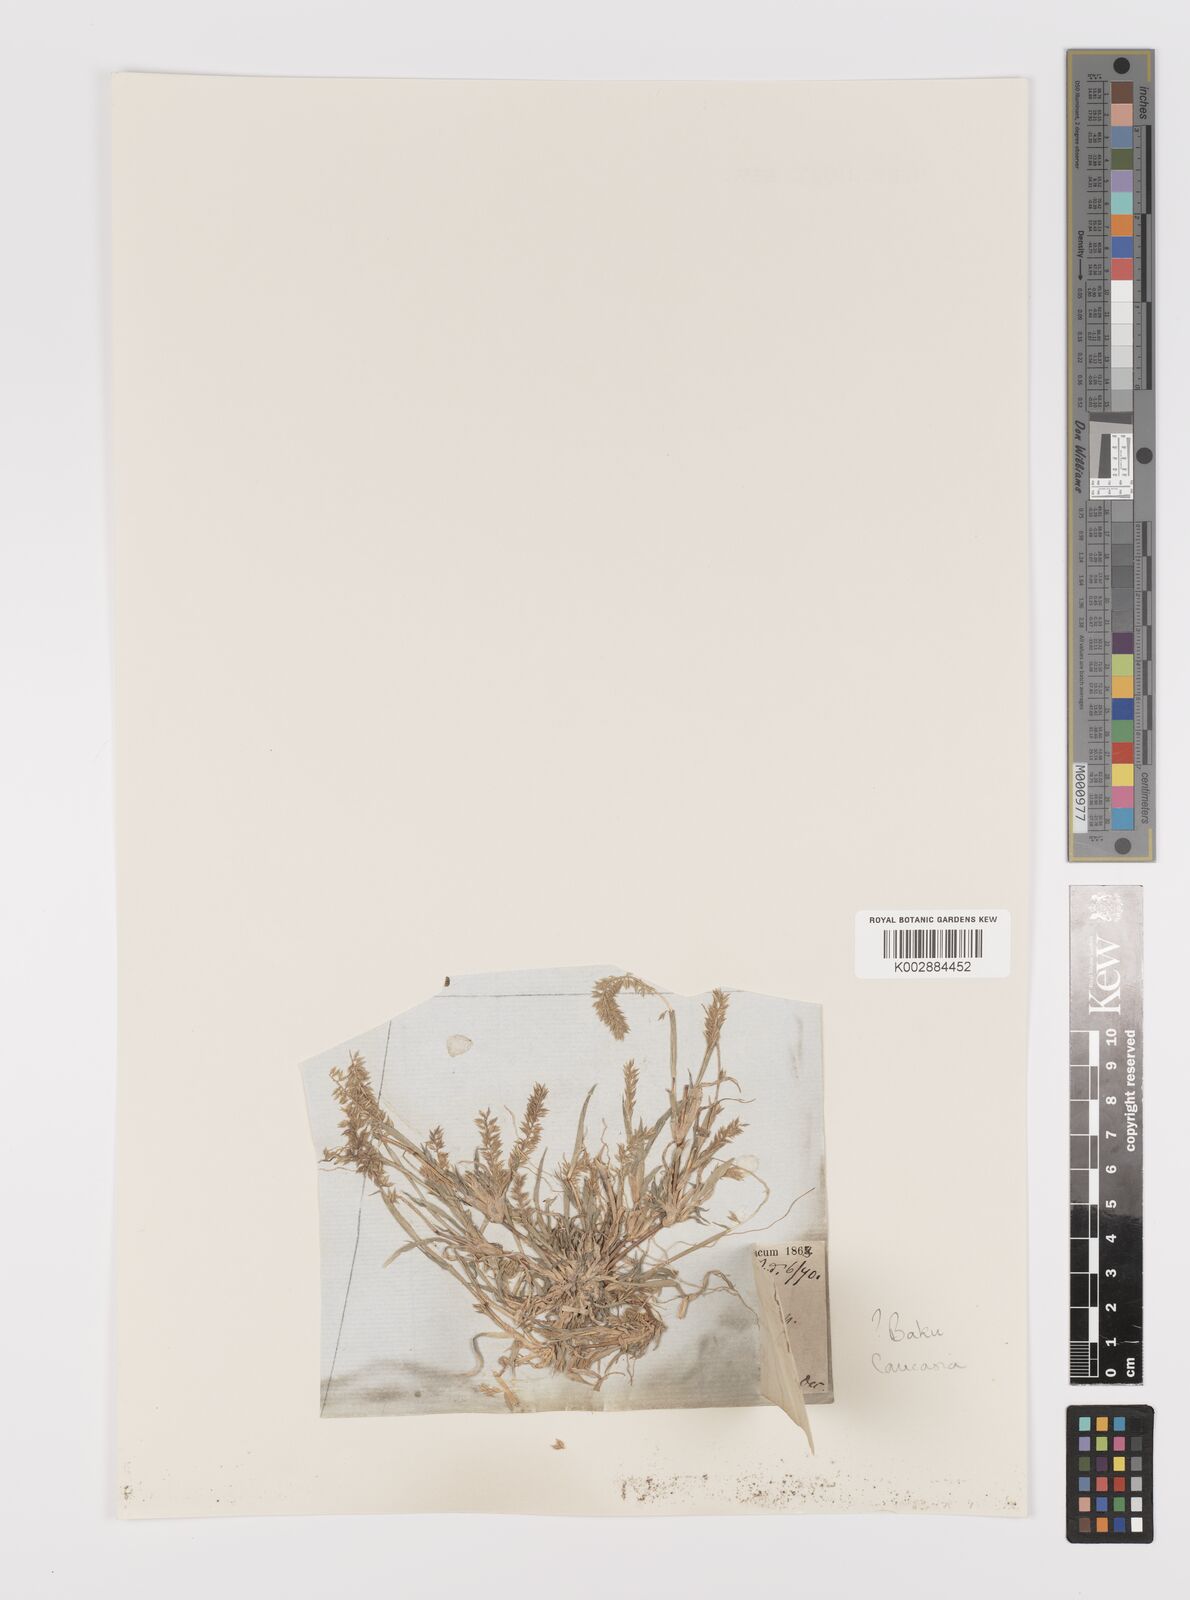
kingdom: Plantae
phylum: Tracheophyta
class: Liliopsida
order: Poales
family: Poaceae
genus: Tragus
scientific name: Tragus racemosus
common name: European bur-grass
